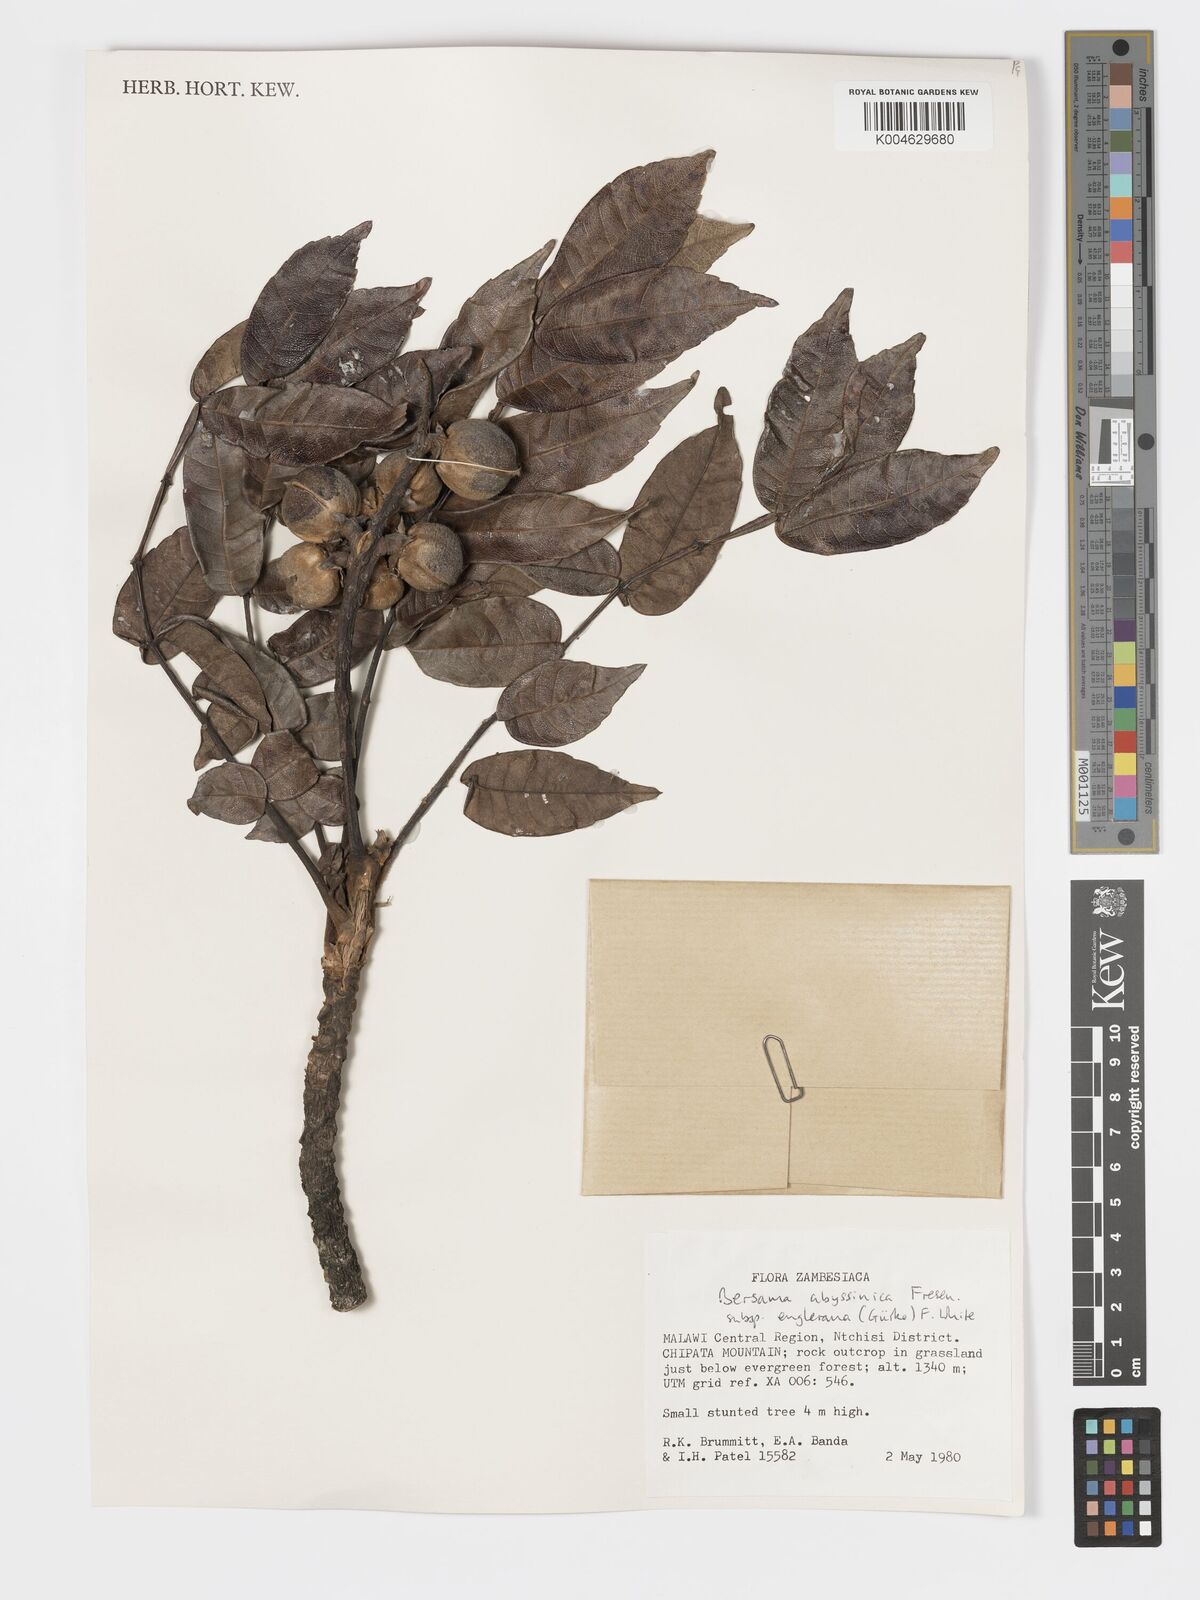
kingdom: Plantae
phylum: Tracheophyta
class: Magnoliopsida
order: Geraniales
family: Melianthaceae
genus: Bersama
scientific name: Bersama abyssinica
